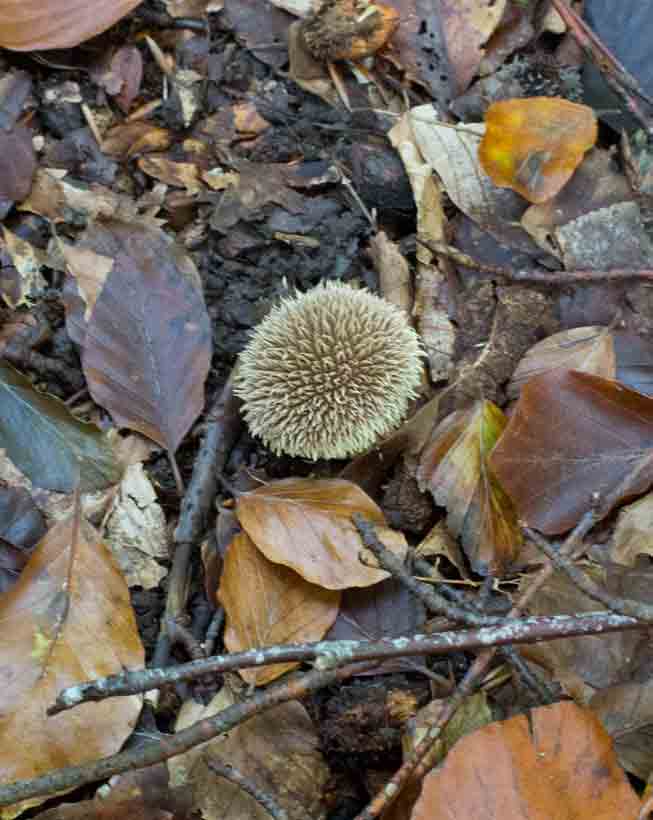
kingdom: Fungi
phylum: Basidiomycota
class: Agaricomycetes
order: Agaricales
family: Lycoperdaceae
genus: Lycoperdon
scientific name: Lycoperdon echinatum
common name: pindsvine-støvbold
